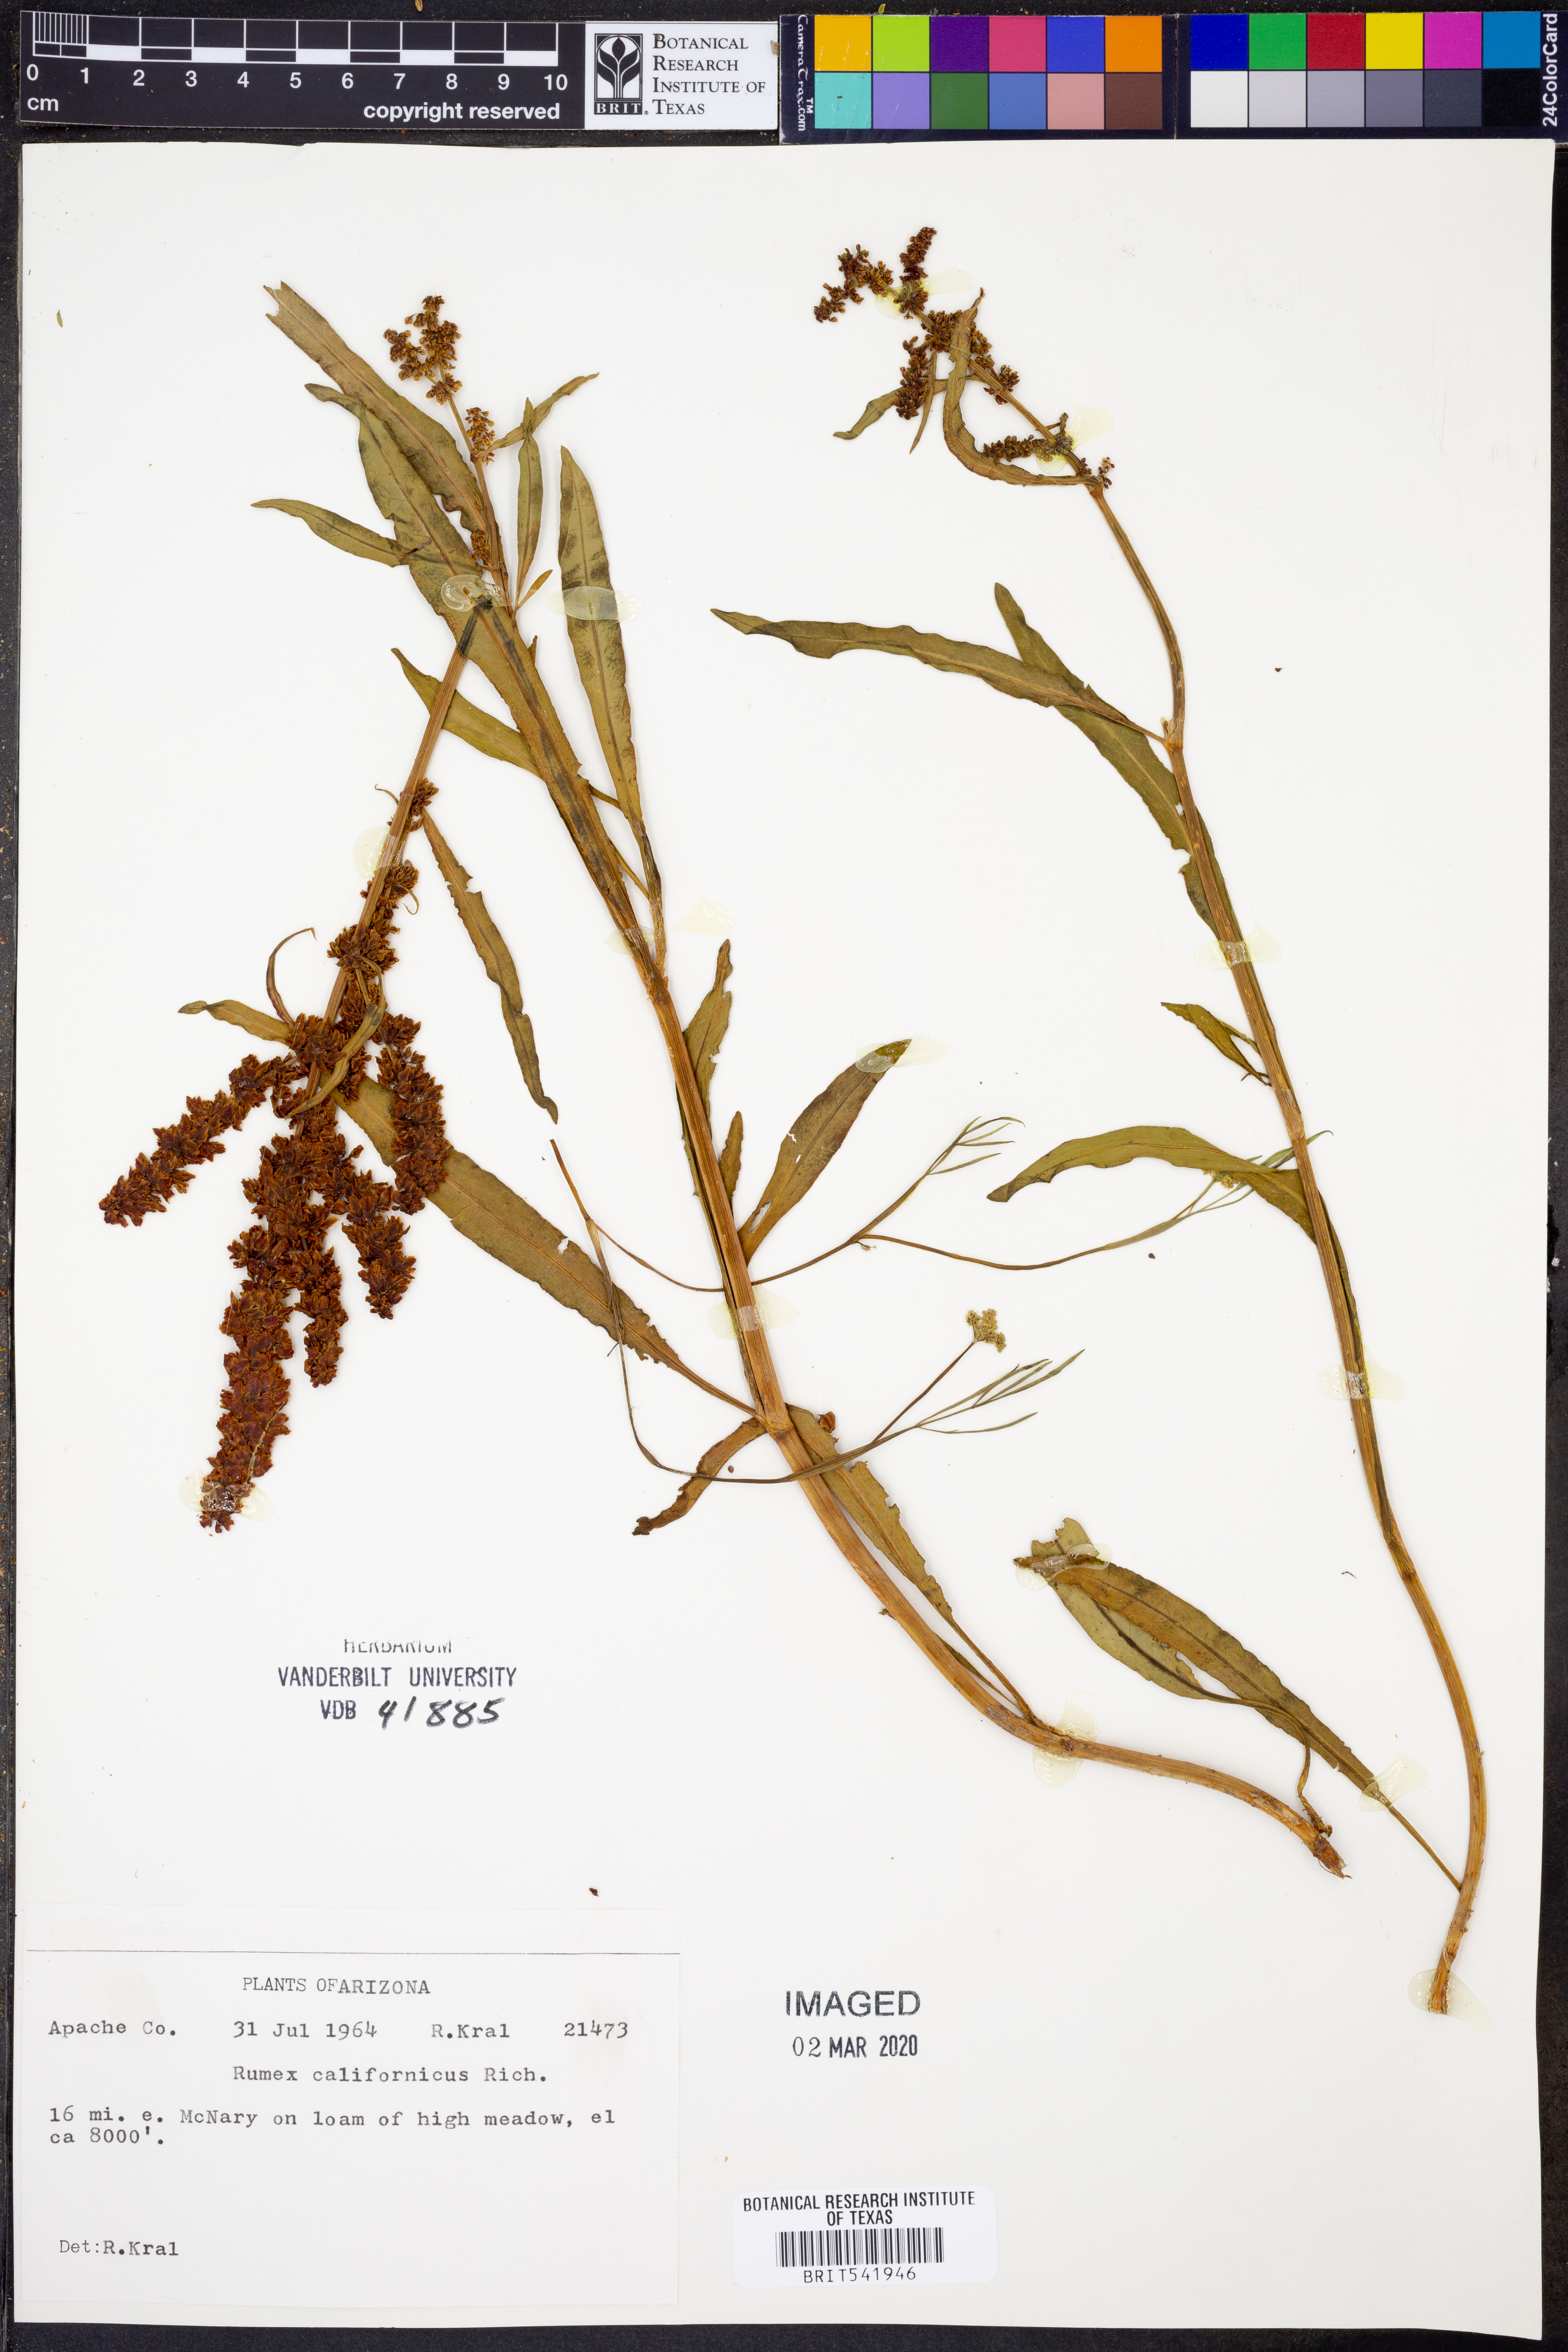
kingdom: Plantae
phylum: Tracheophyta
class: Magnoliopsida
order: Caryophyllales
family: Polygonaceae
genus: Rumex
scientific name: Rumex californicus
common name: California willow dock
